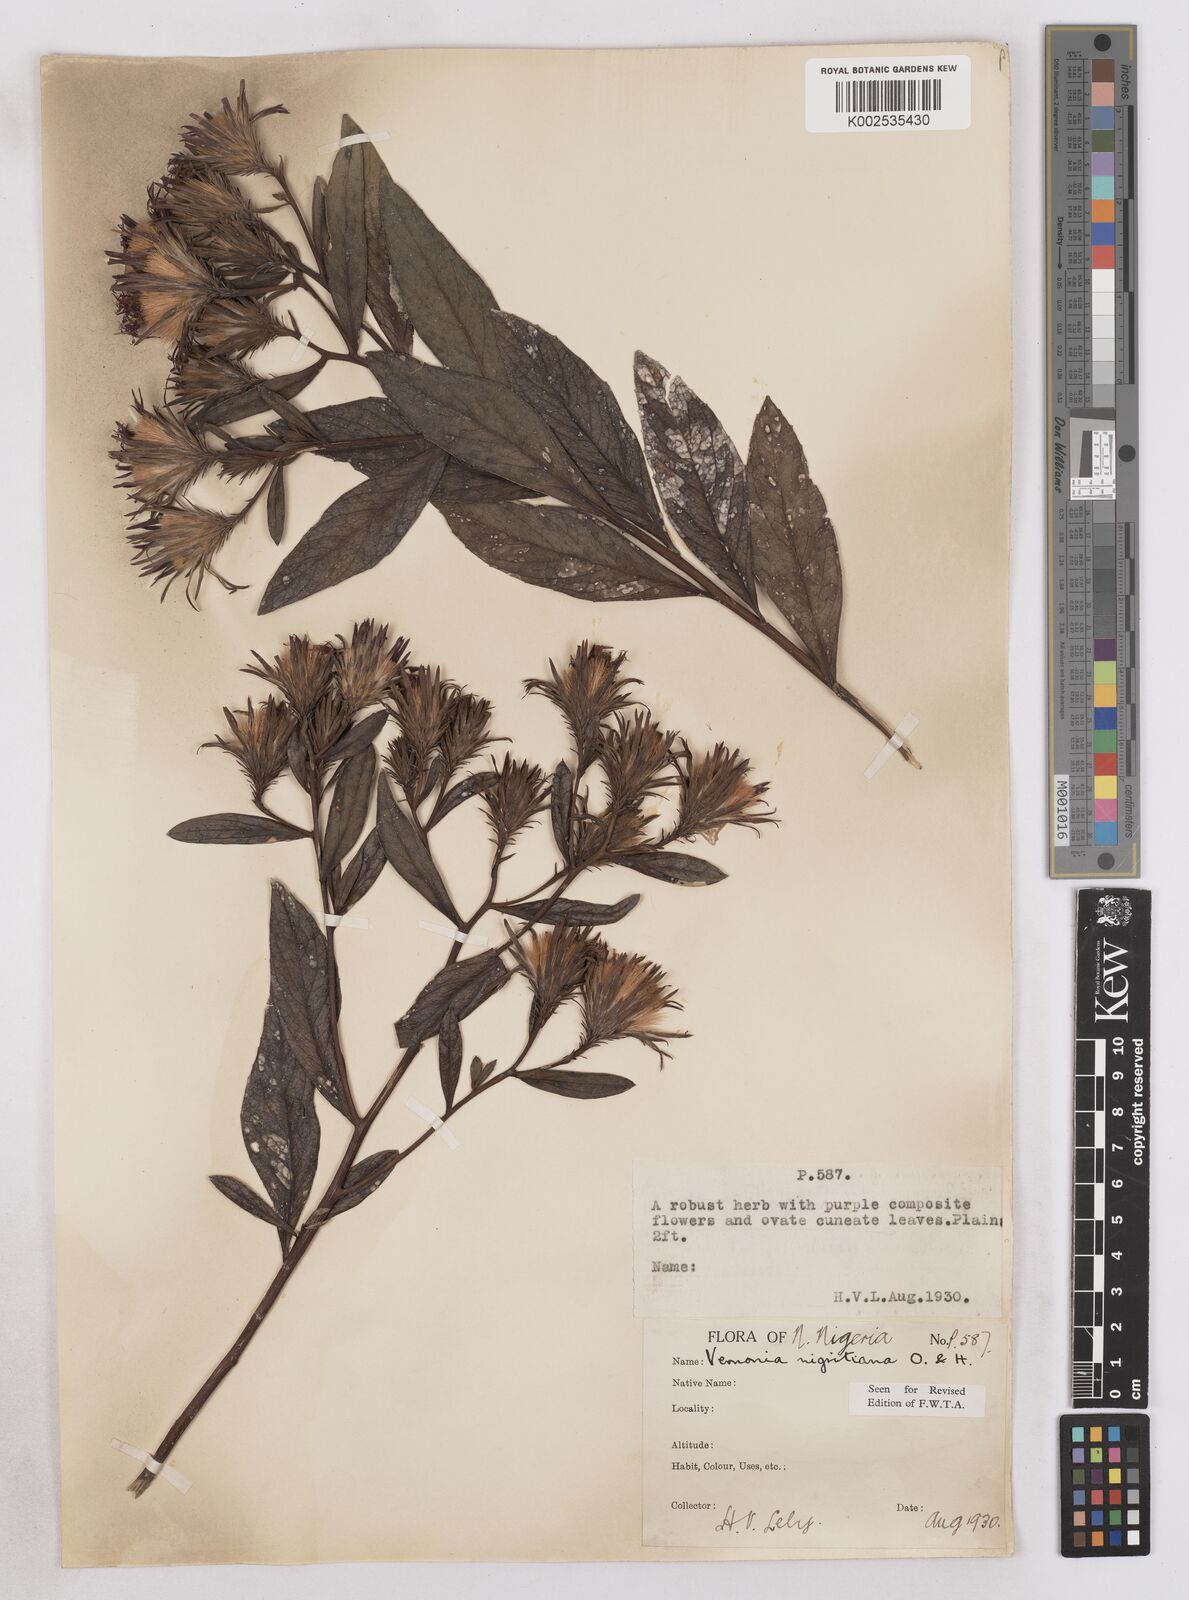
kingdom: Plantae
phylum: Tracheophyta
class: Magnoliopsida
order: Asterales
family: Asteraceae
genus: Linzia
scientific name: Linzia nigritiana
